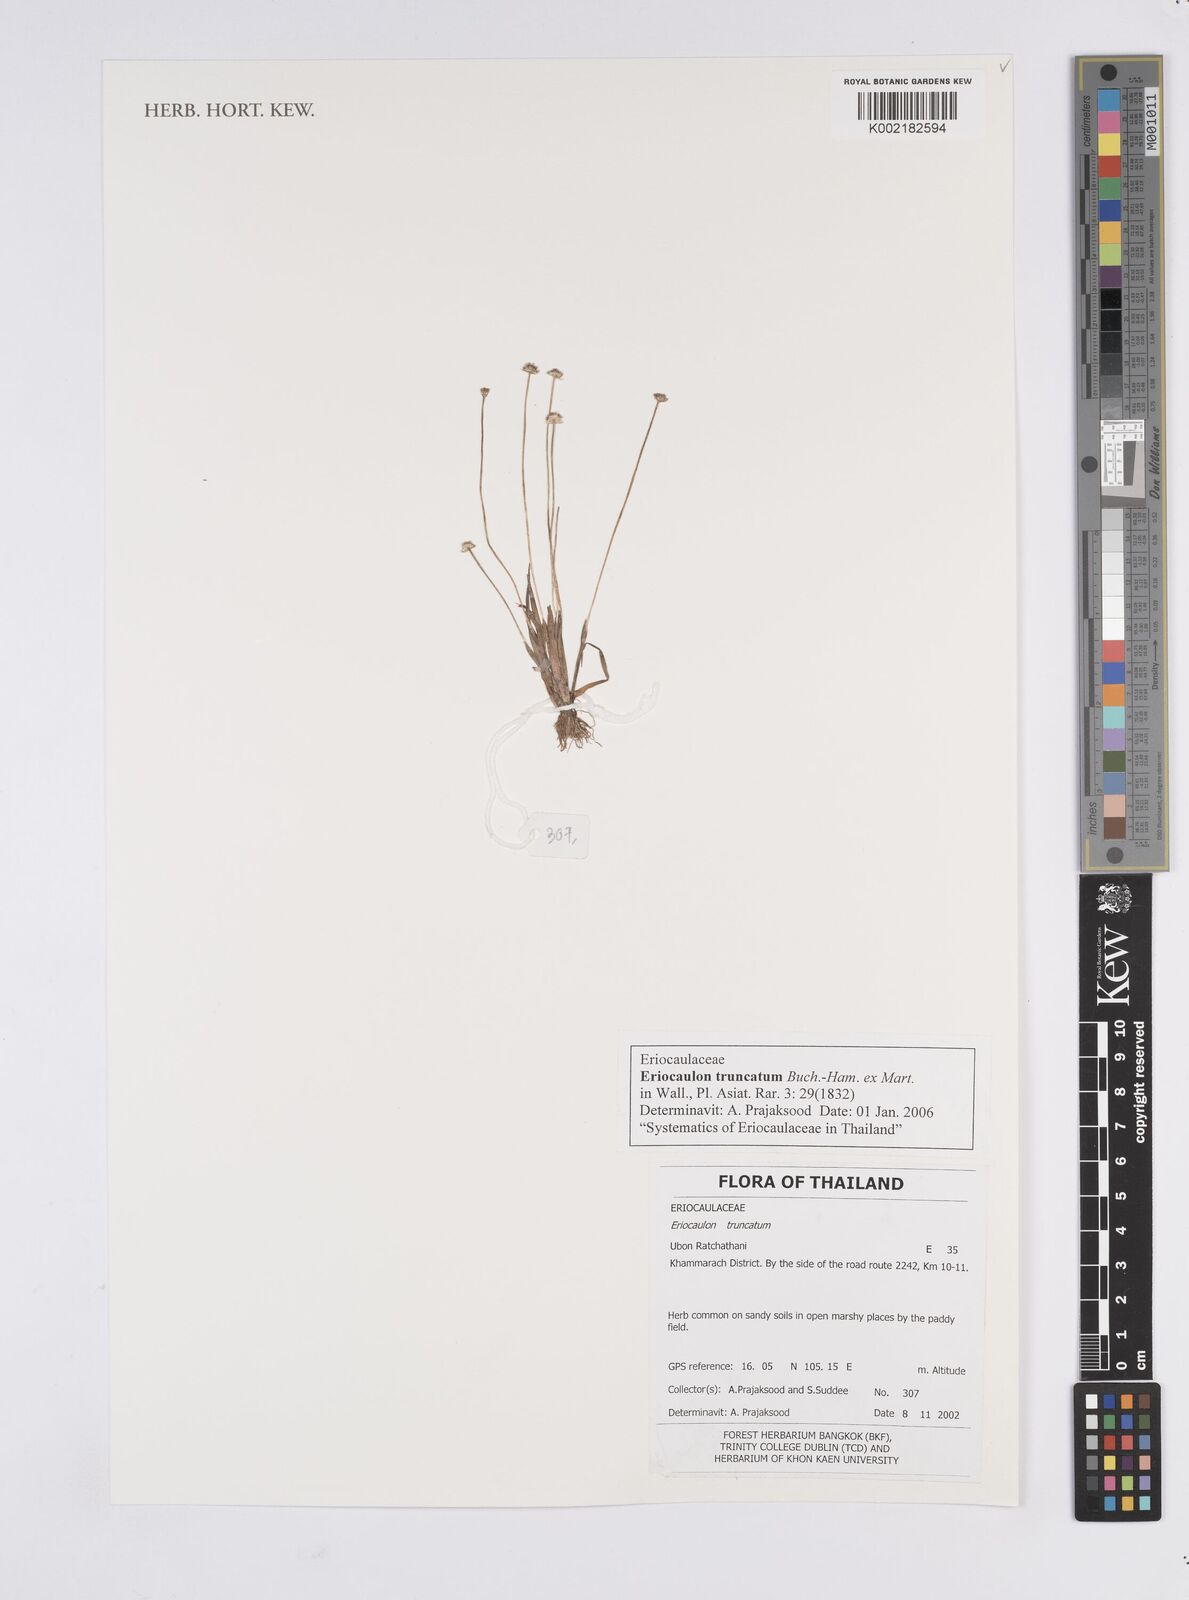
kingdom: Plantae
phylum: Tracheophyta
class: Liliopsida
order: Poales
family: Eriocaulaceae
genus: Eriocaulon
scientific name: Eriocaulon truncatum
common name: Short pipe-wort
